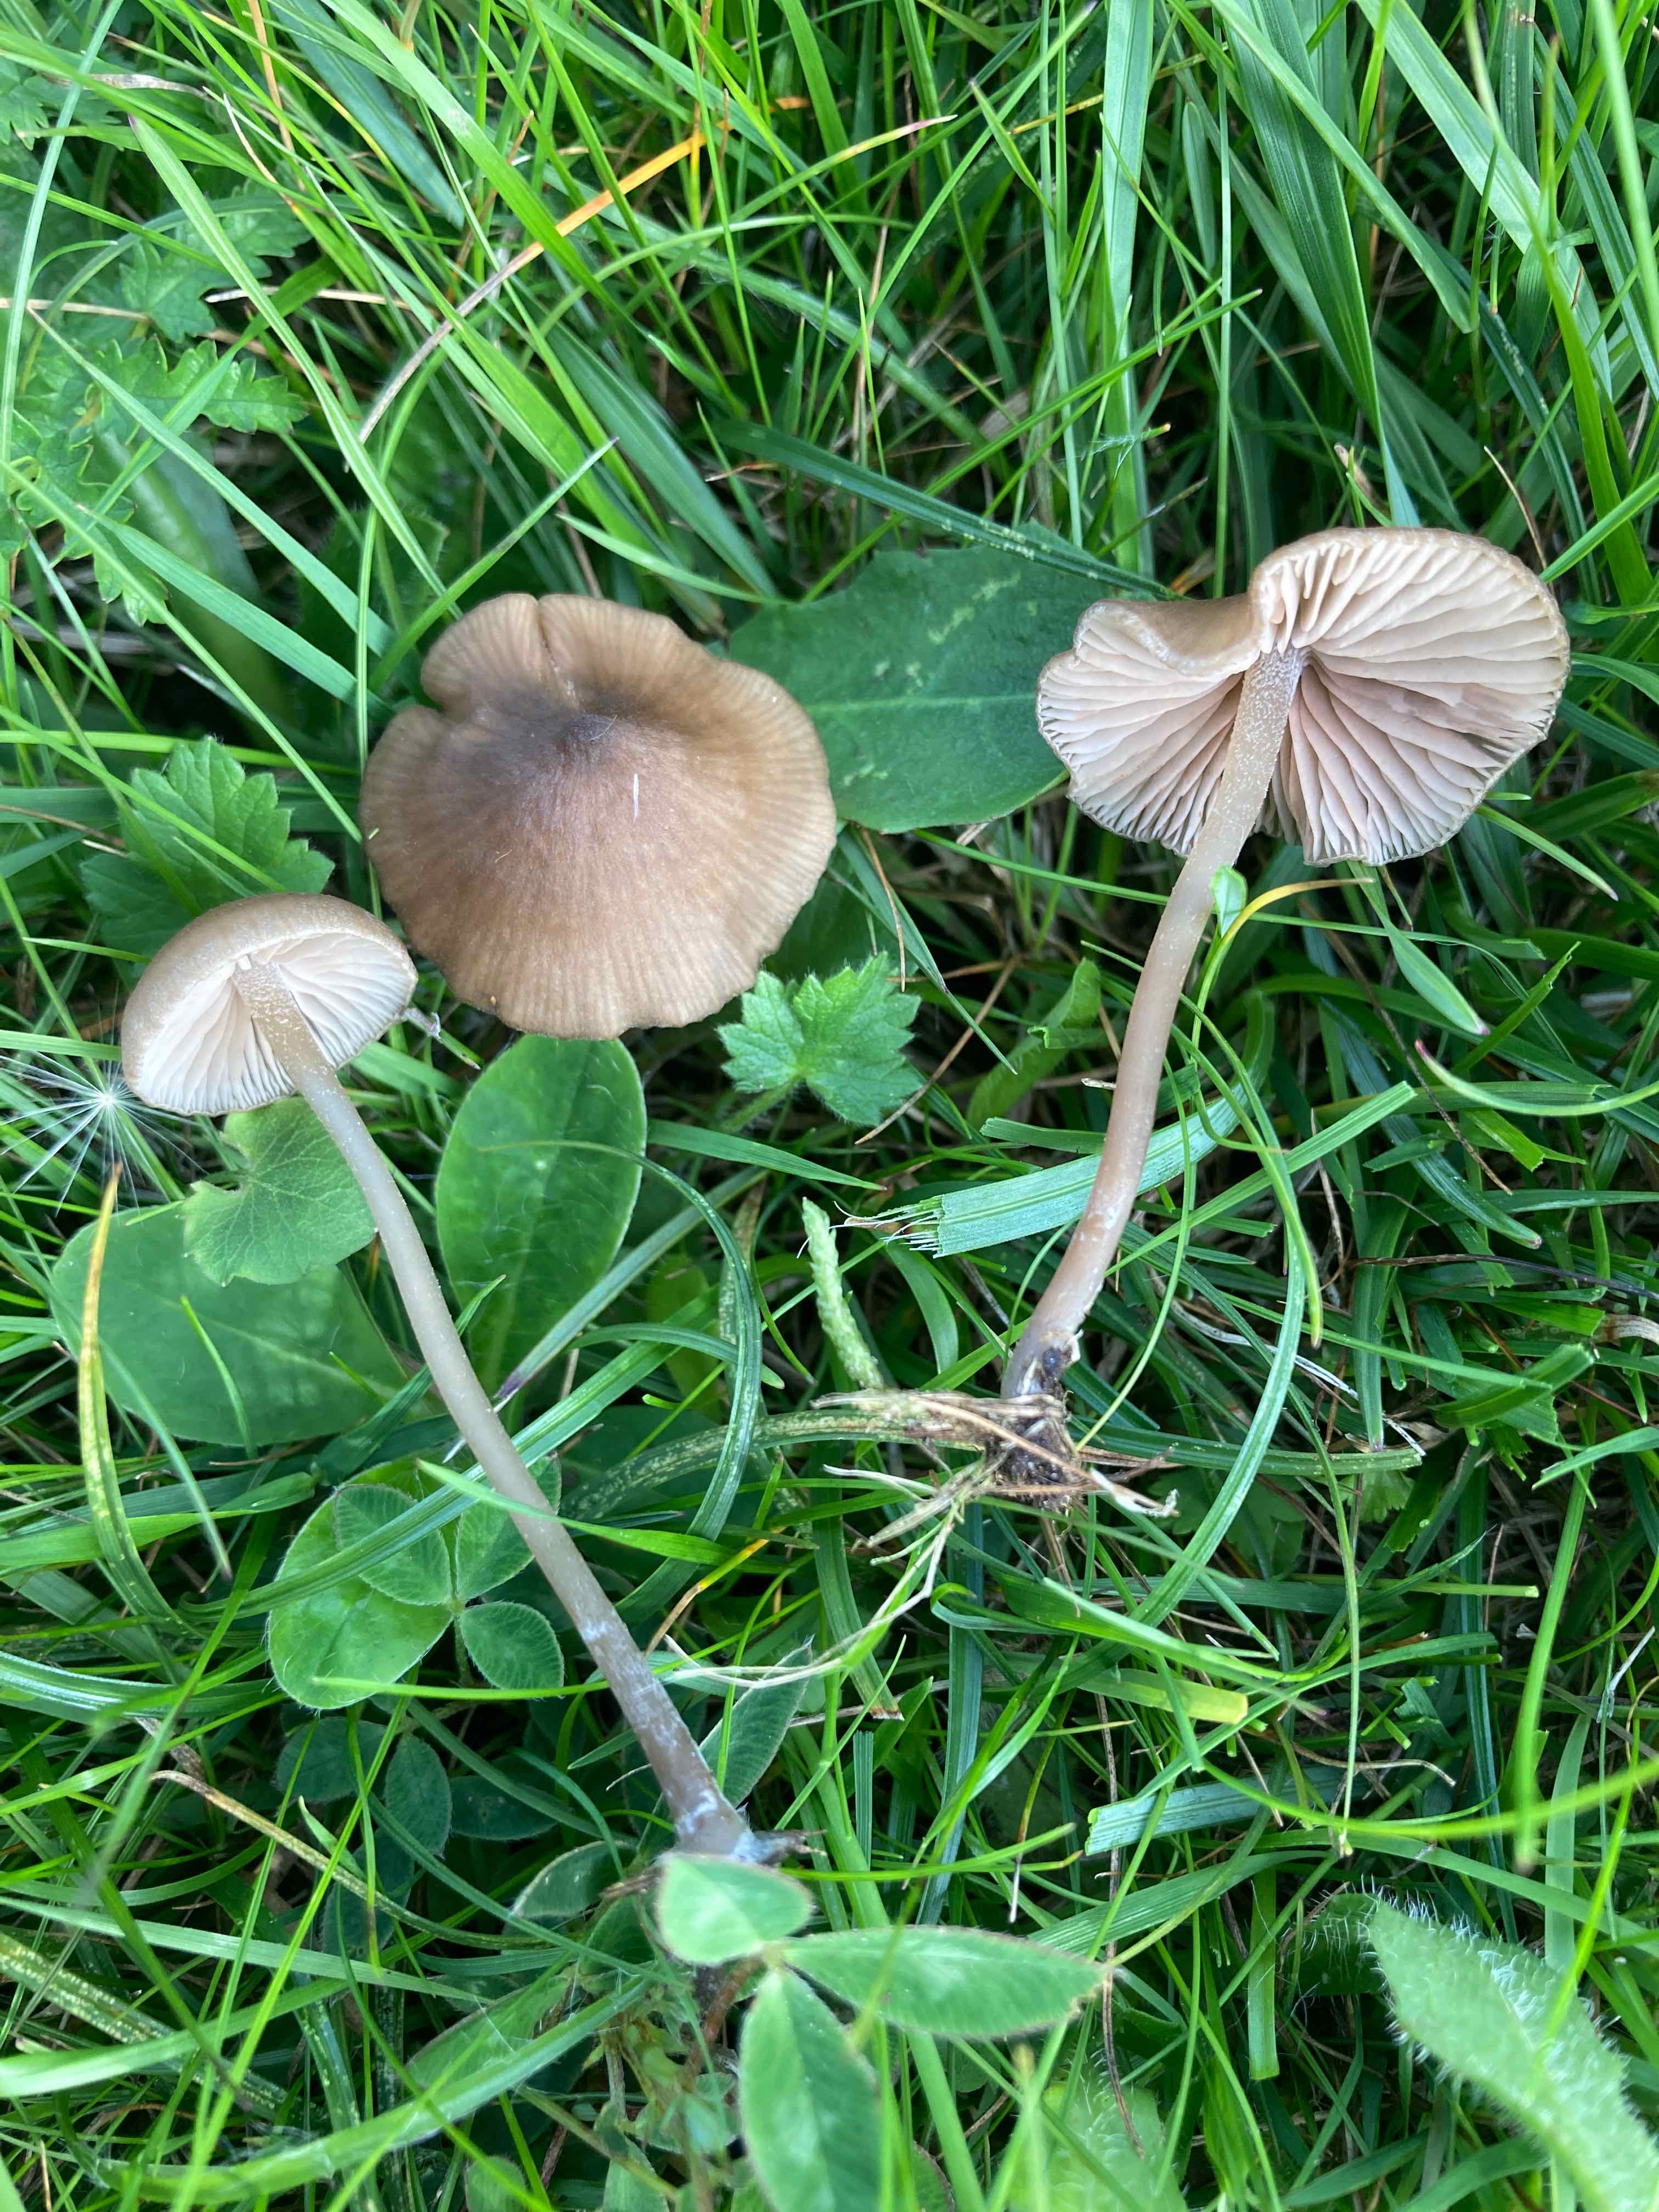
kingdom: Fungi
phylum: Basidiomycota
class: Agaricomycetes
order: Agaricales
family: Entolomataceae
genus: Entoloma
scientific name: Entoloma clandestinum
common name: tykbladet rødblad
